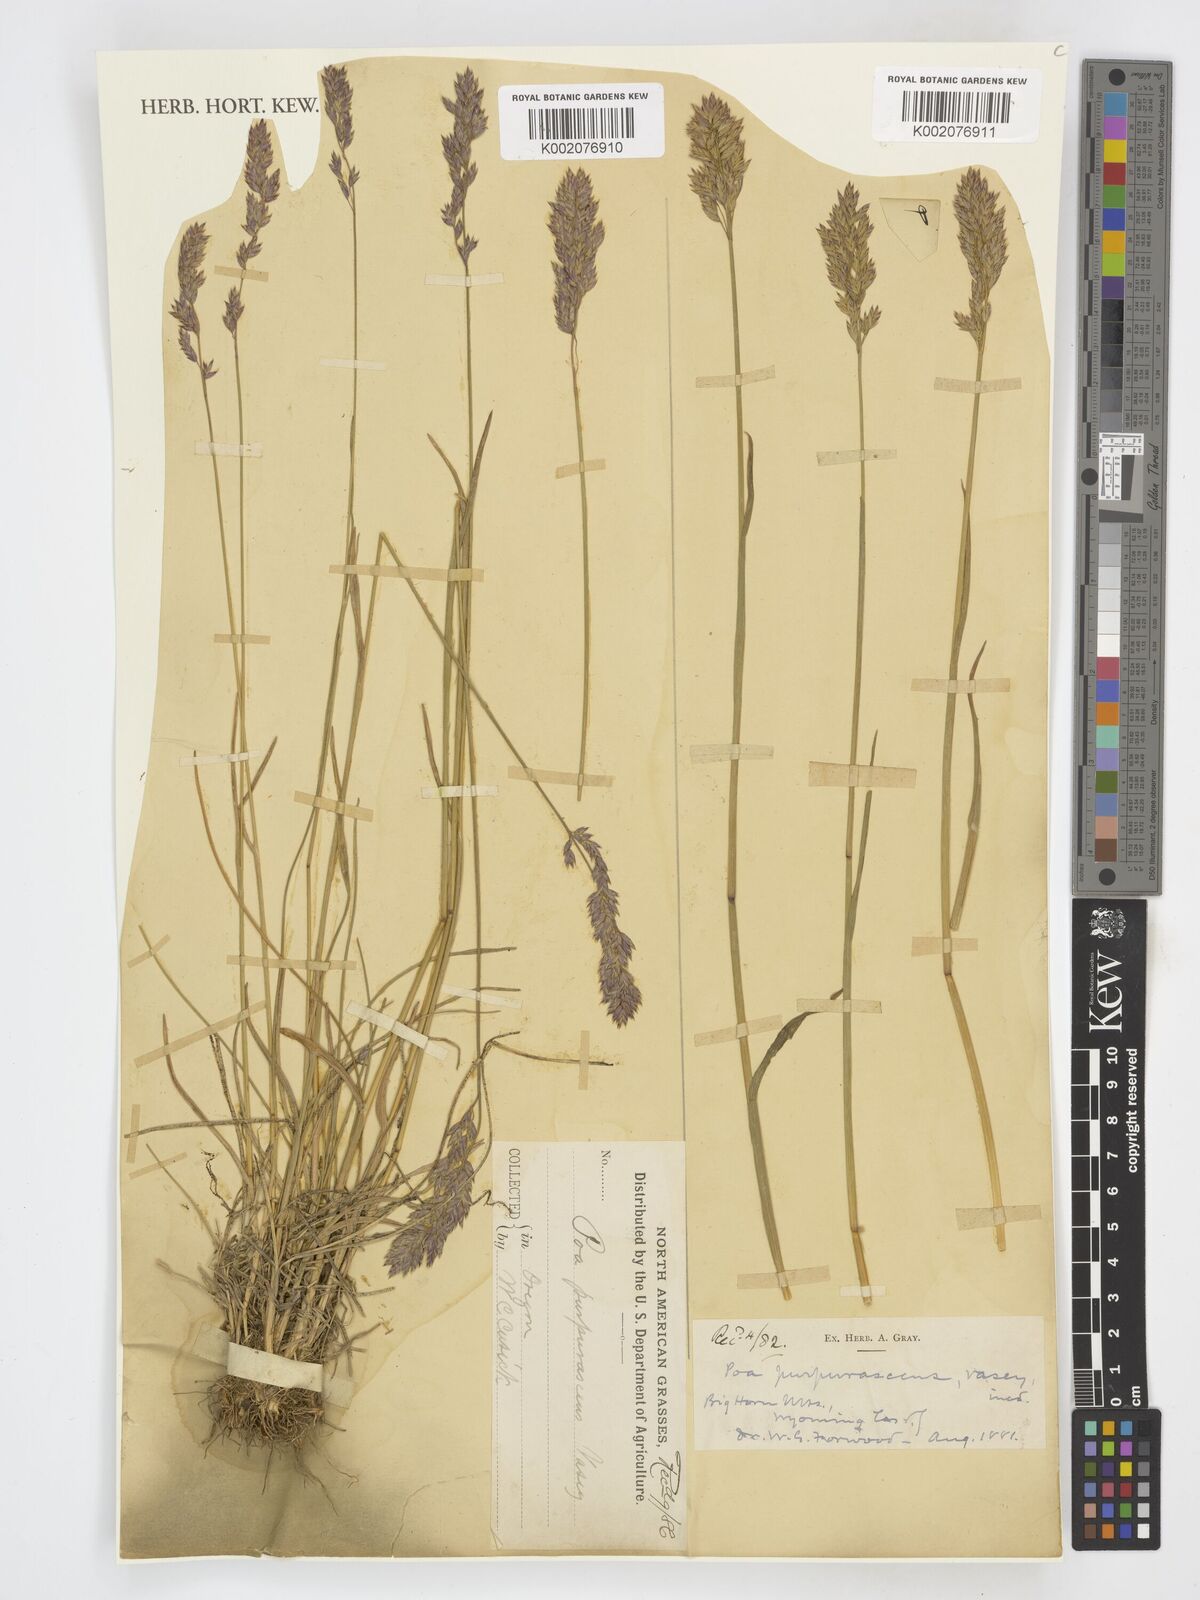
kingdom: Plantae
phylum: Tracheophyta
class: Liliopsida
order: Poales
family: Poaceae
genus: Poa
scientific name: Poa cusickii
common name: Cusick's bluegrass
